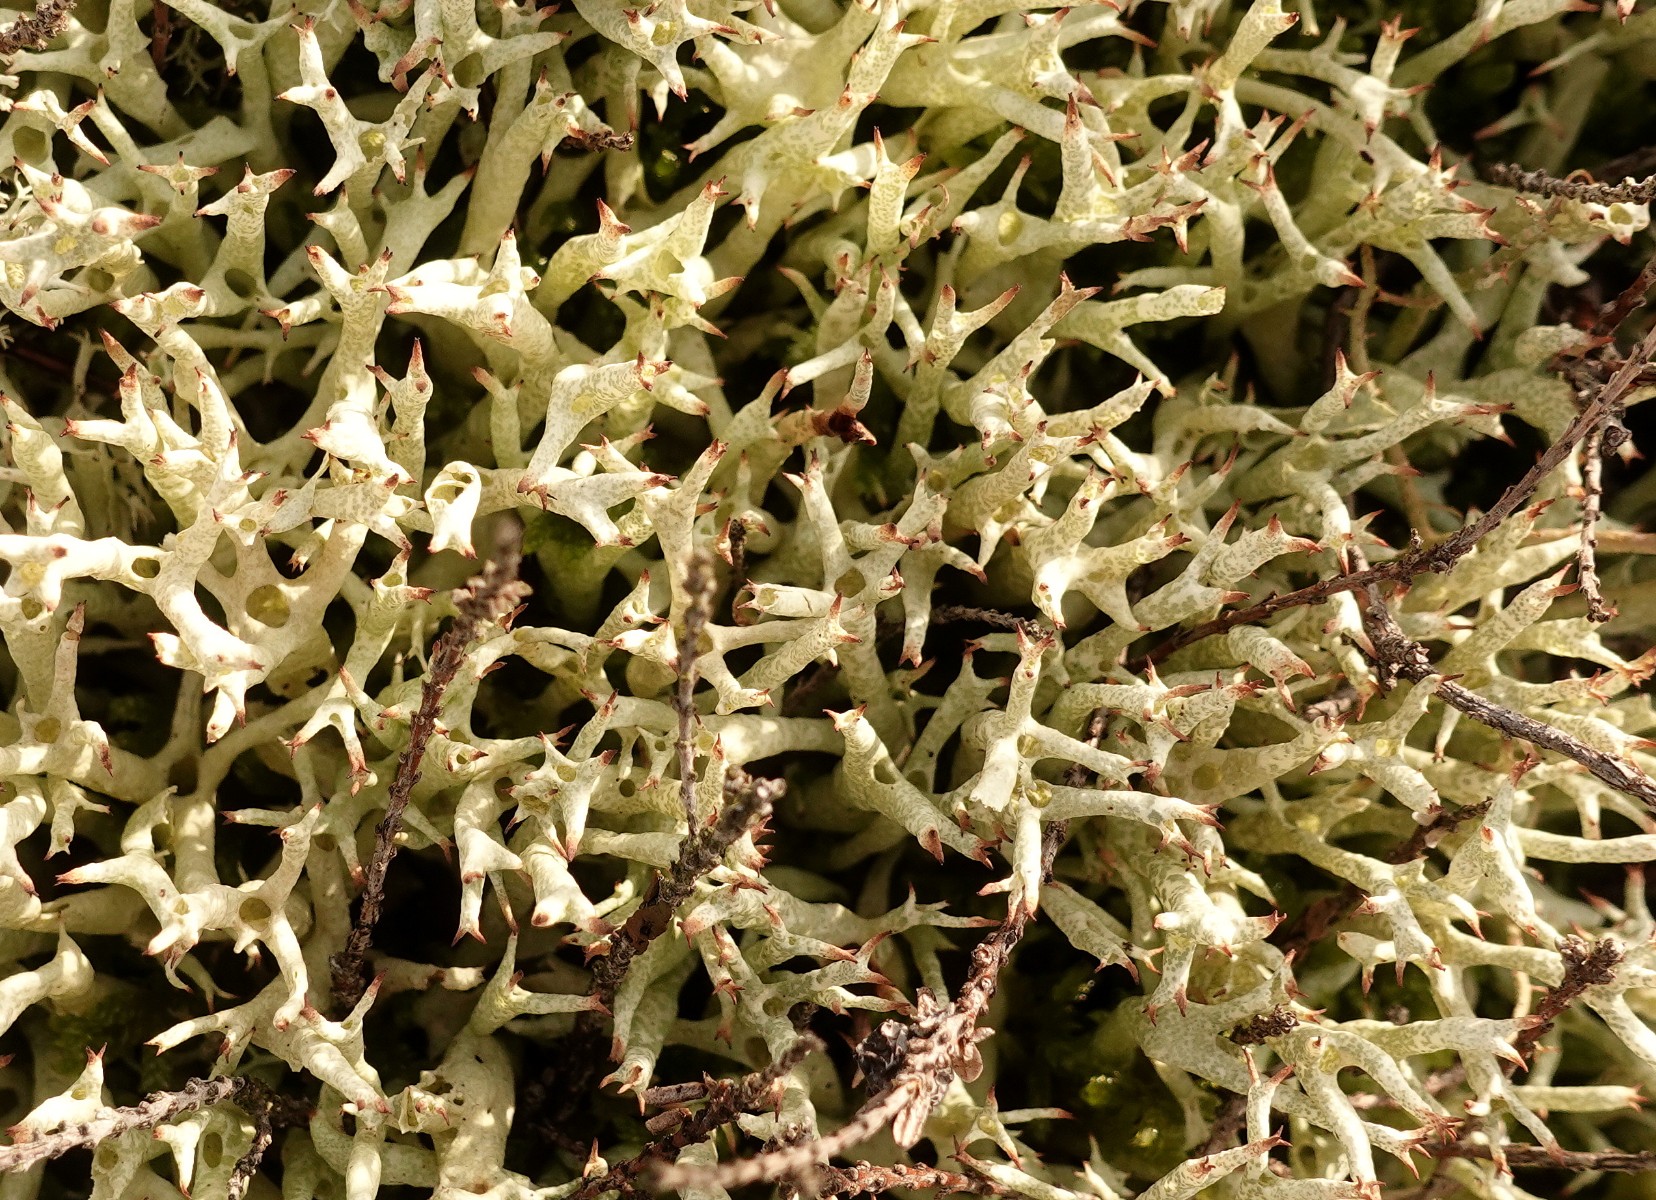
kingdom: Fungi
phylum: Ascomycota
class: Lecanoromycetes
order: Lecanorales
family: Cladoniaceae
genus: Cladonia
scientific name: Cladonia uncialis
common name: pigget bægerlav
